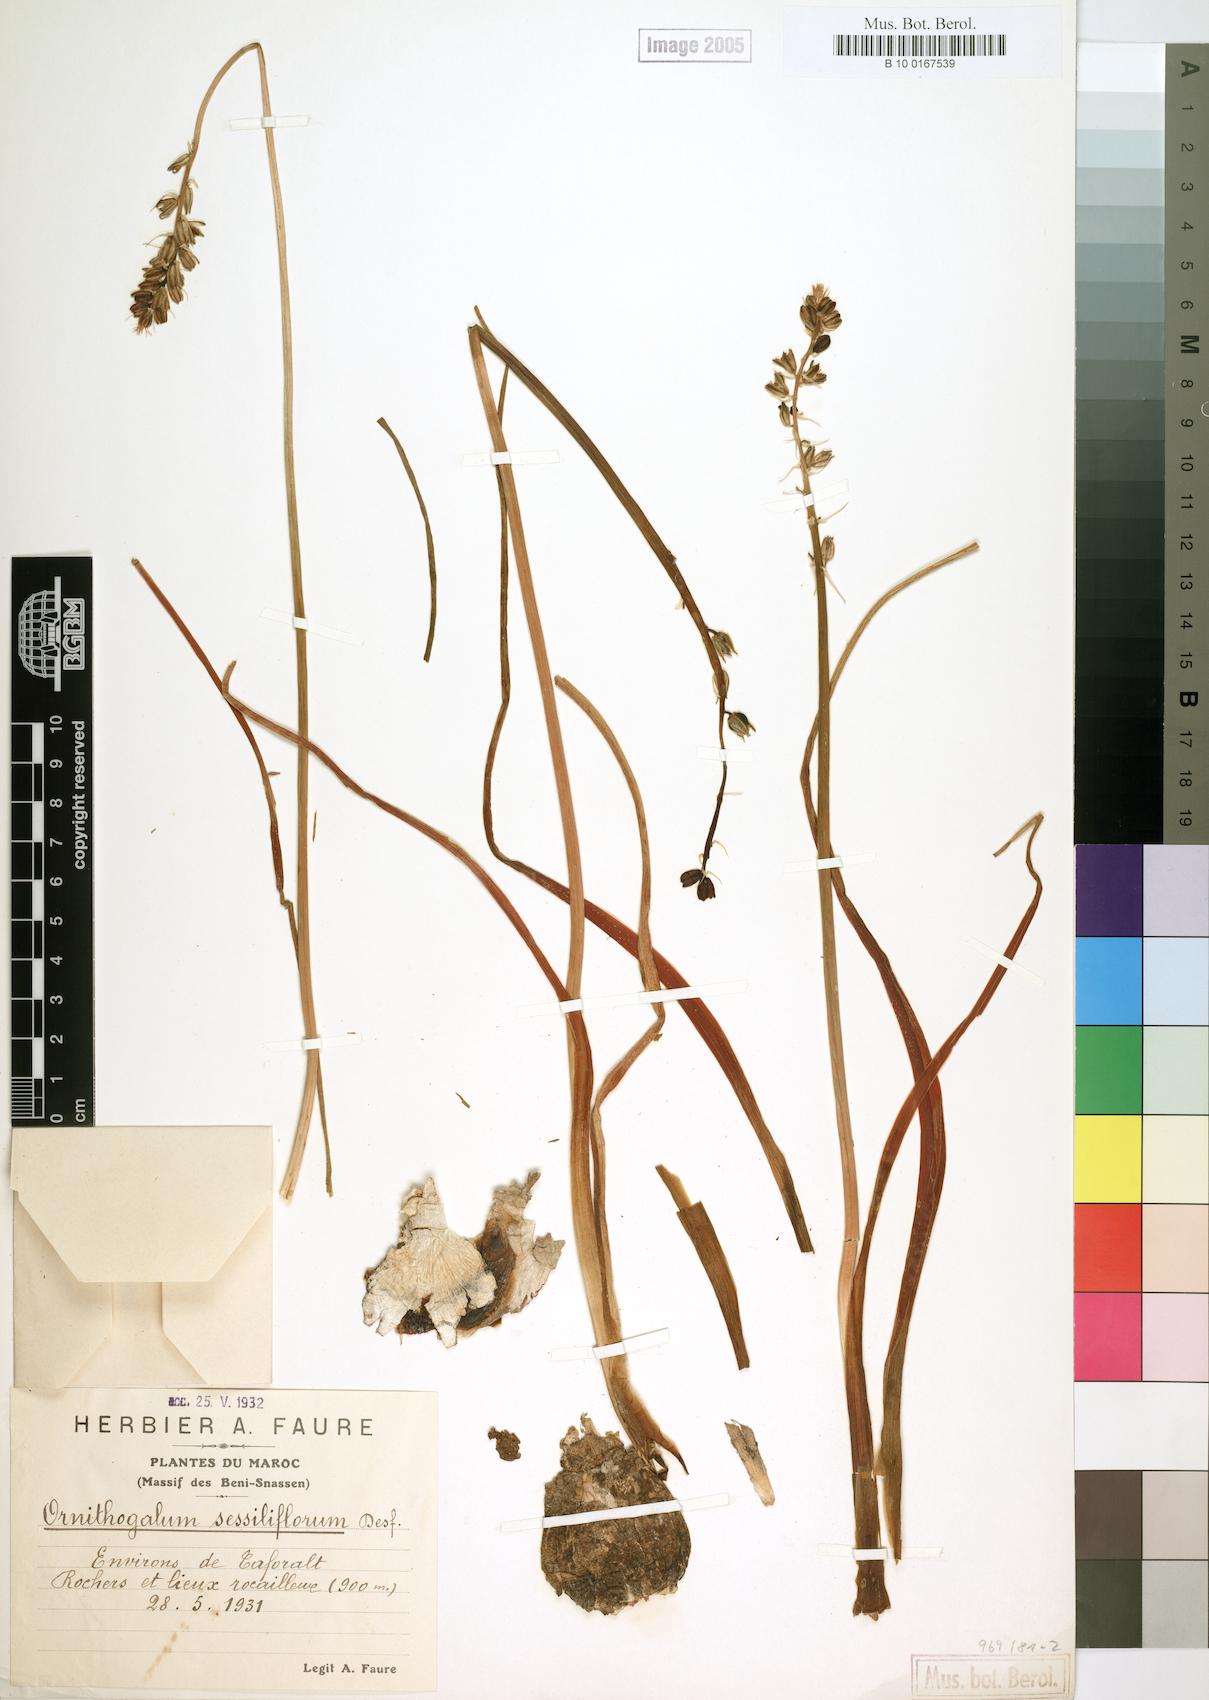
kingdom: Plantae
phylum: Tracheophyta
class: Liliopsida
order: Asparagales
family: Asparagaceae
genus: Ornithogalum
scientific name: Ornithogalum sessiliflorum
